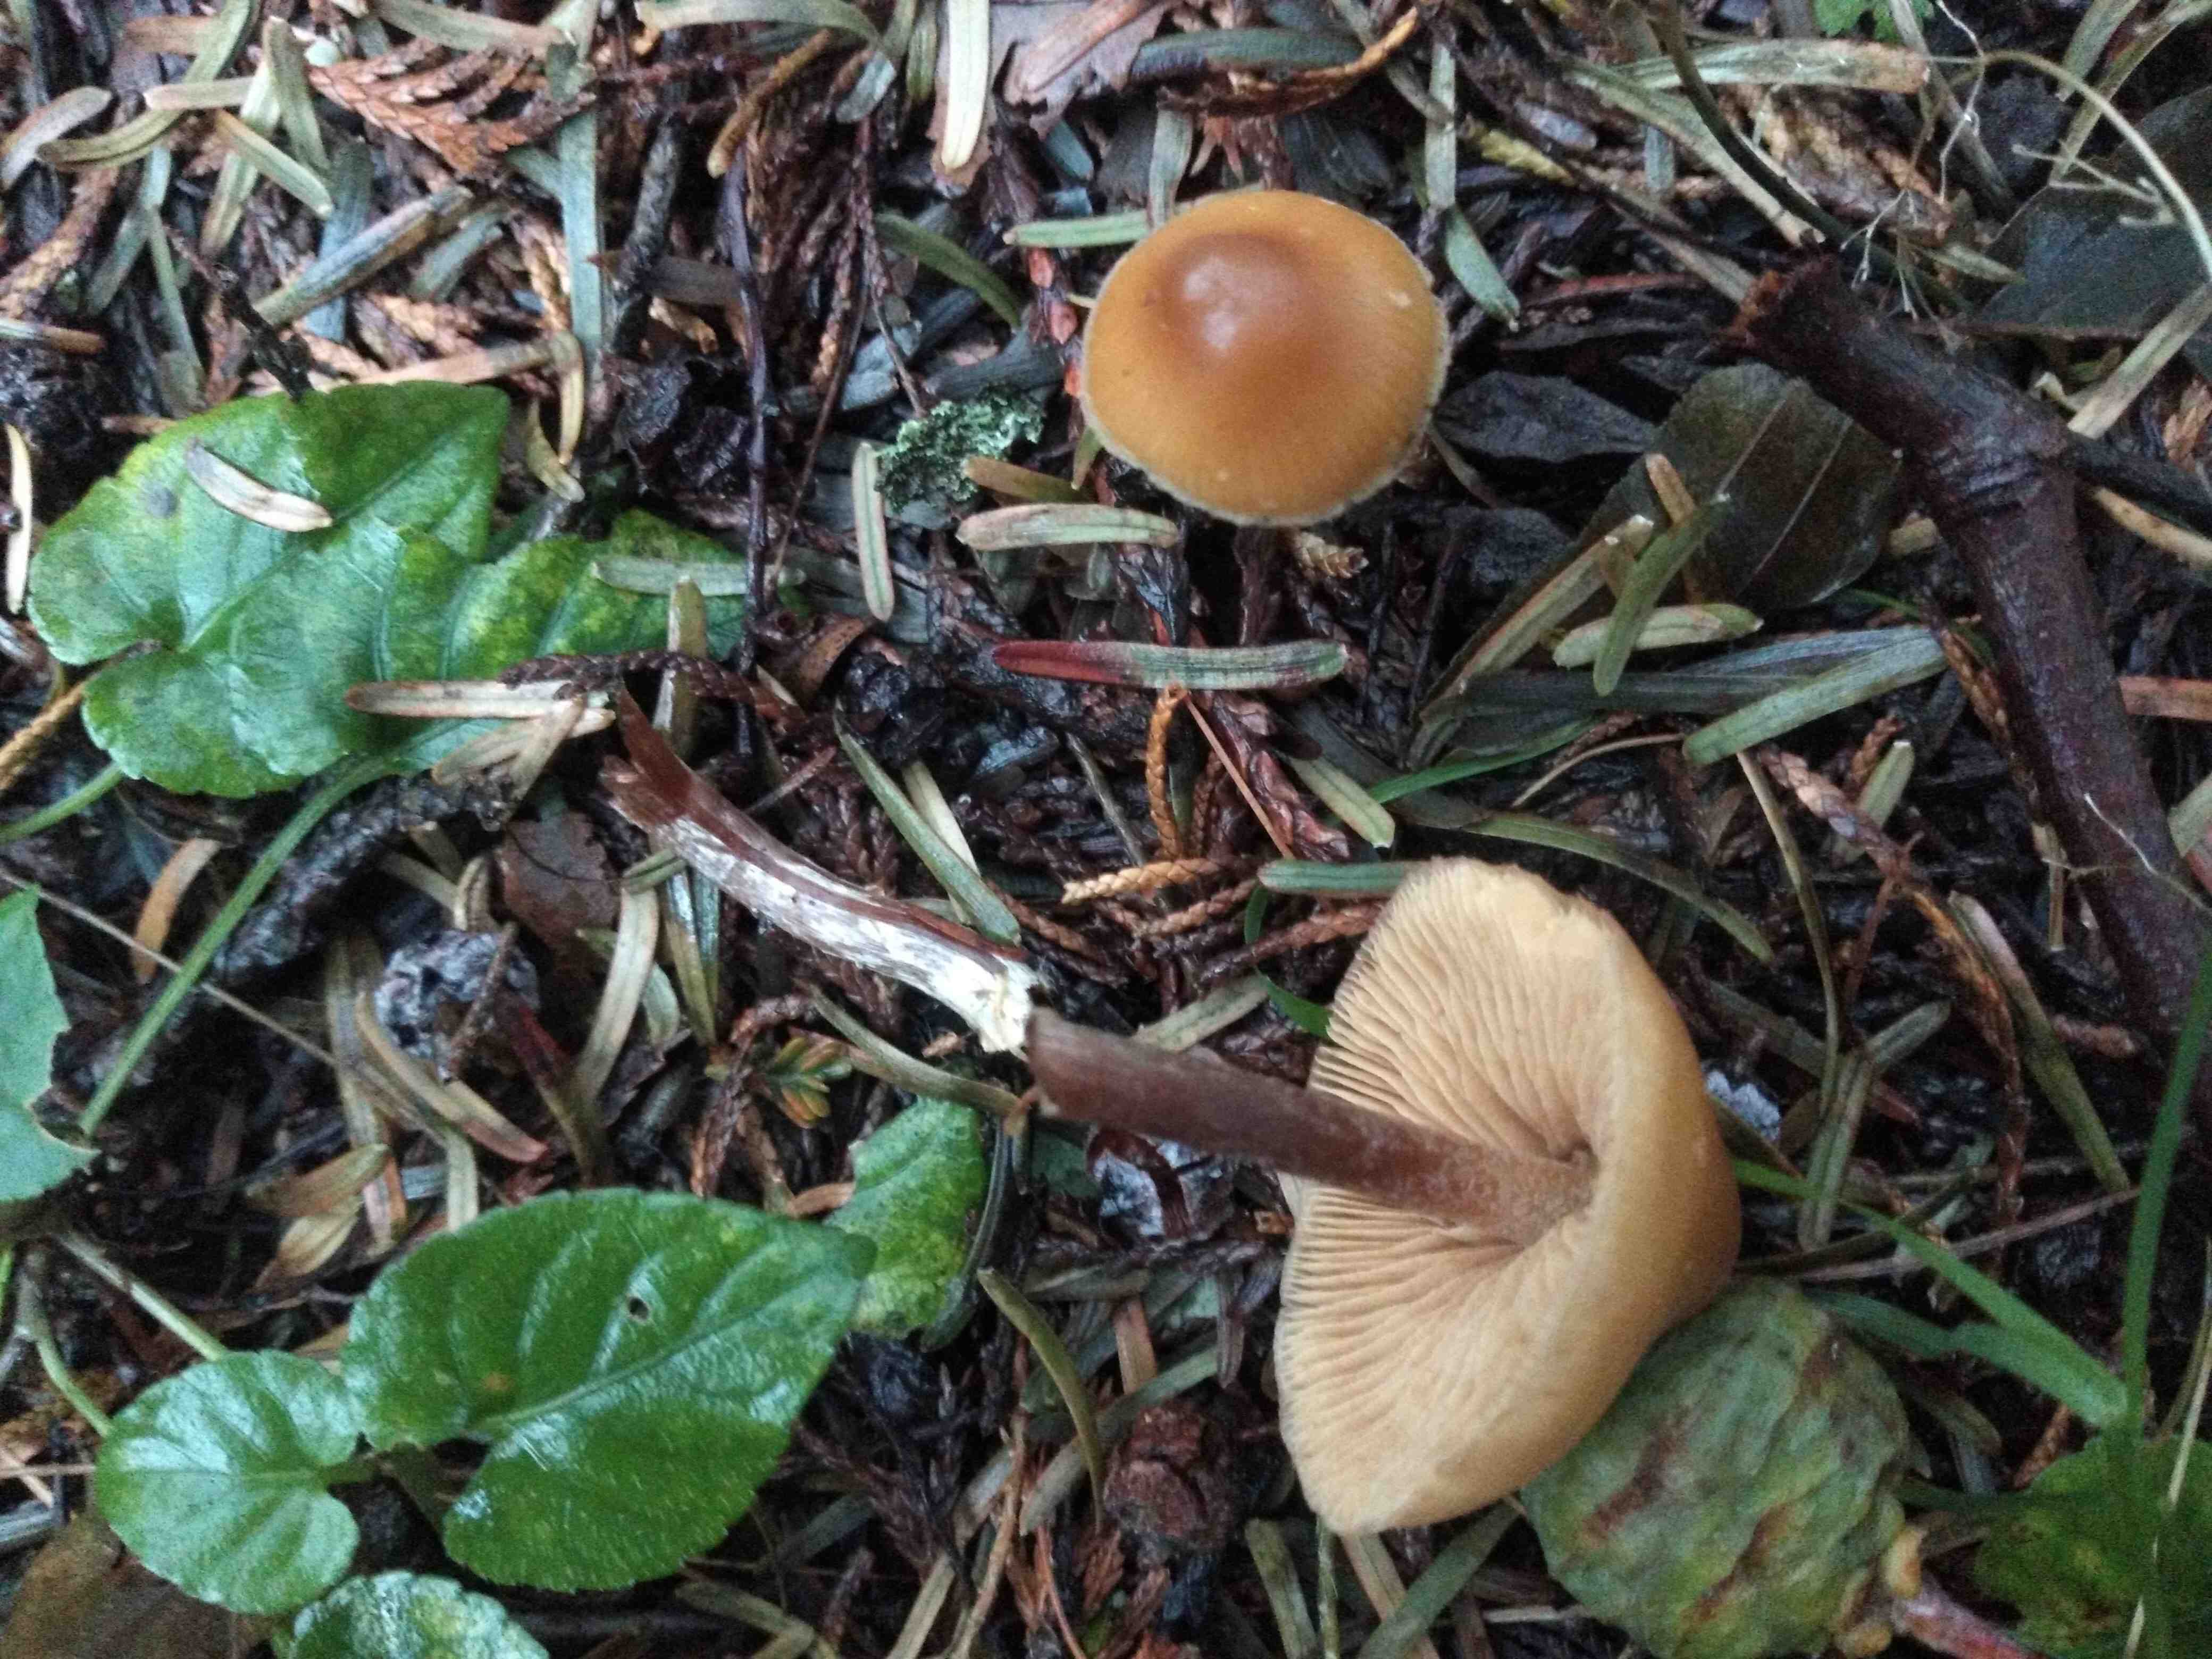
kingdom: Fungi
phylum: Basidiomycota
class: Agaricomycetes
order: Agaricales
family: Hymenogastraceae
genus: Galerina
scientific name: Galerina sideroides
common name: træflis-hjelmhat
